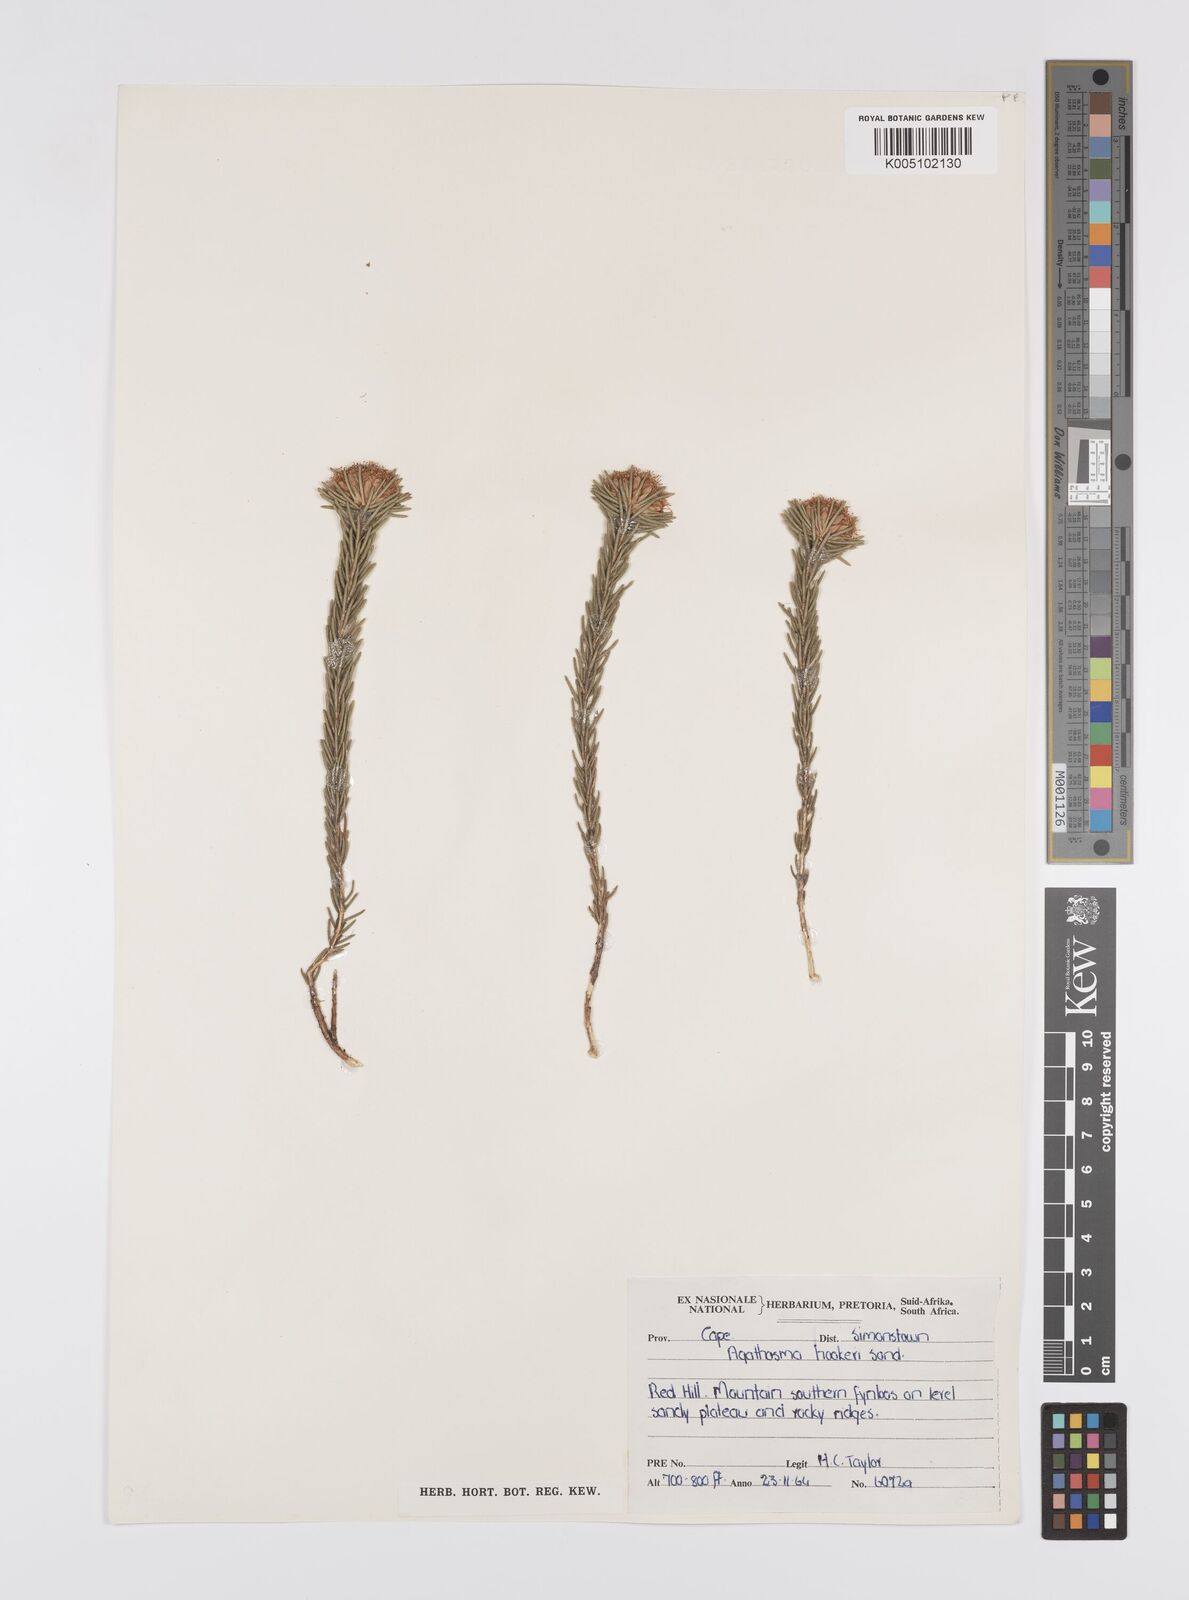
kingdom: Plantae
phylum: Tracheophyta
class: Magnoliopsida
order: Sapindales
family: Rutaceae
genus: Agathosma
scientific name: Agathosma hookeri
